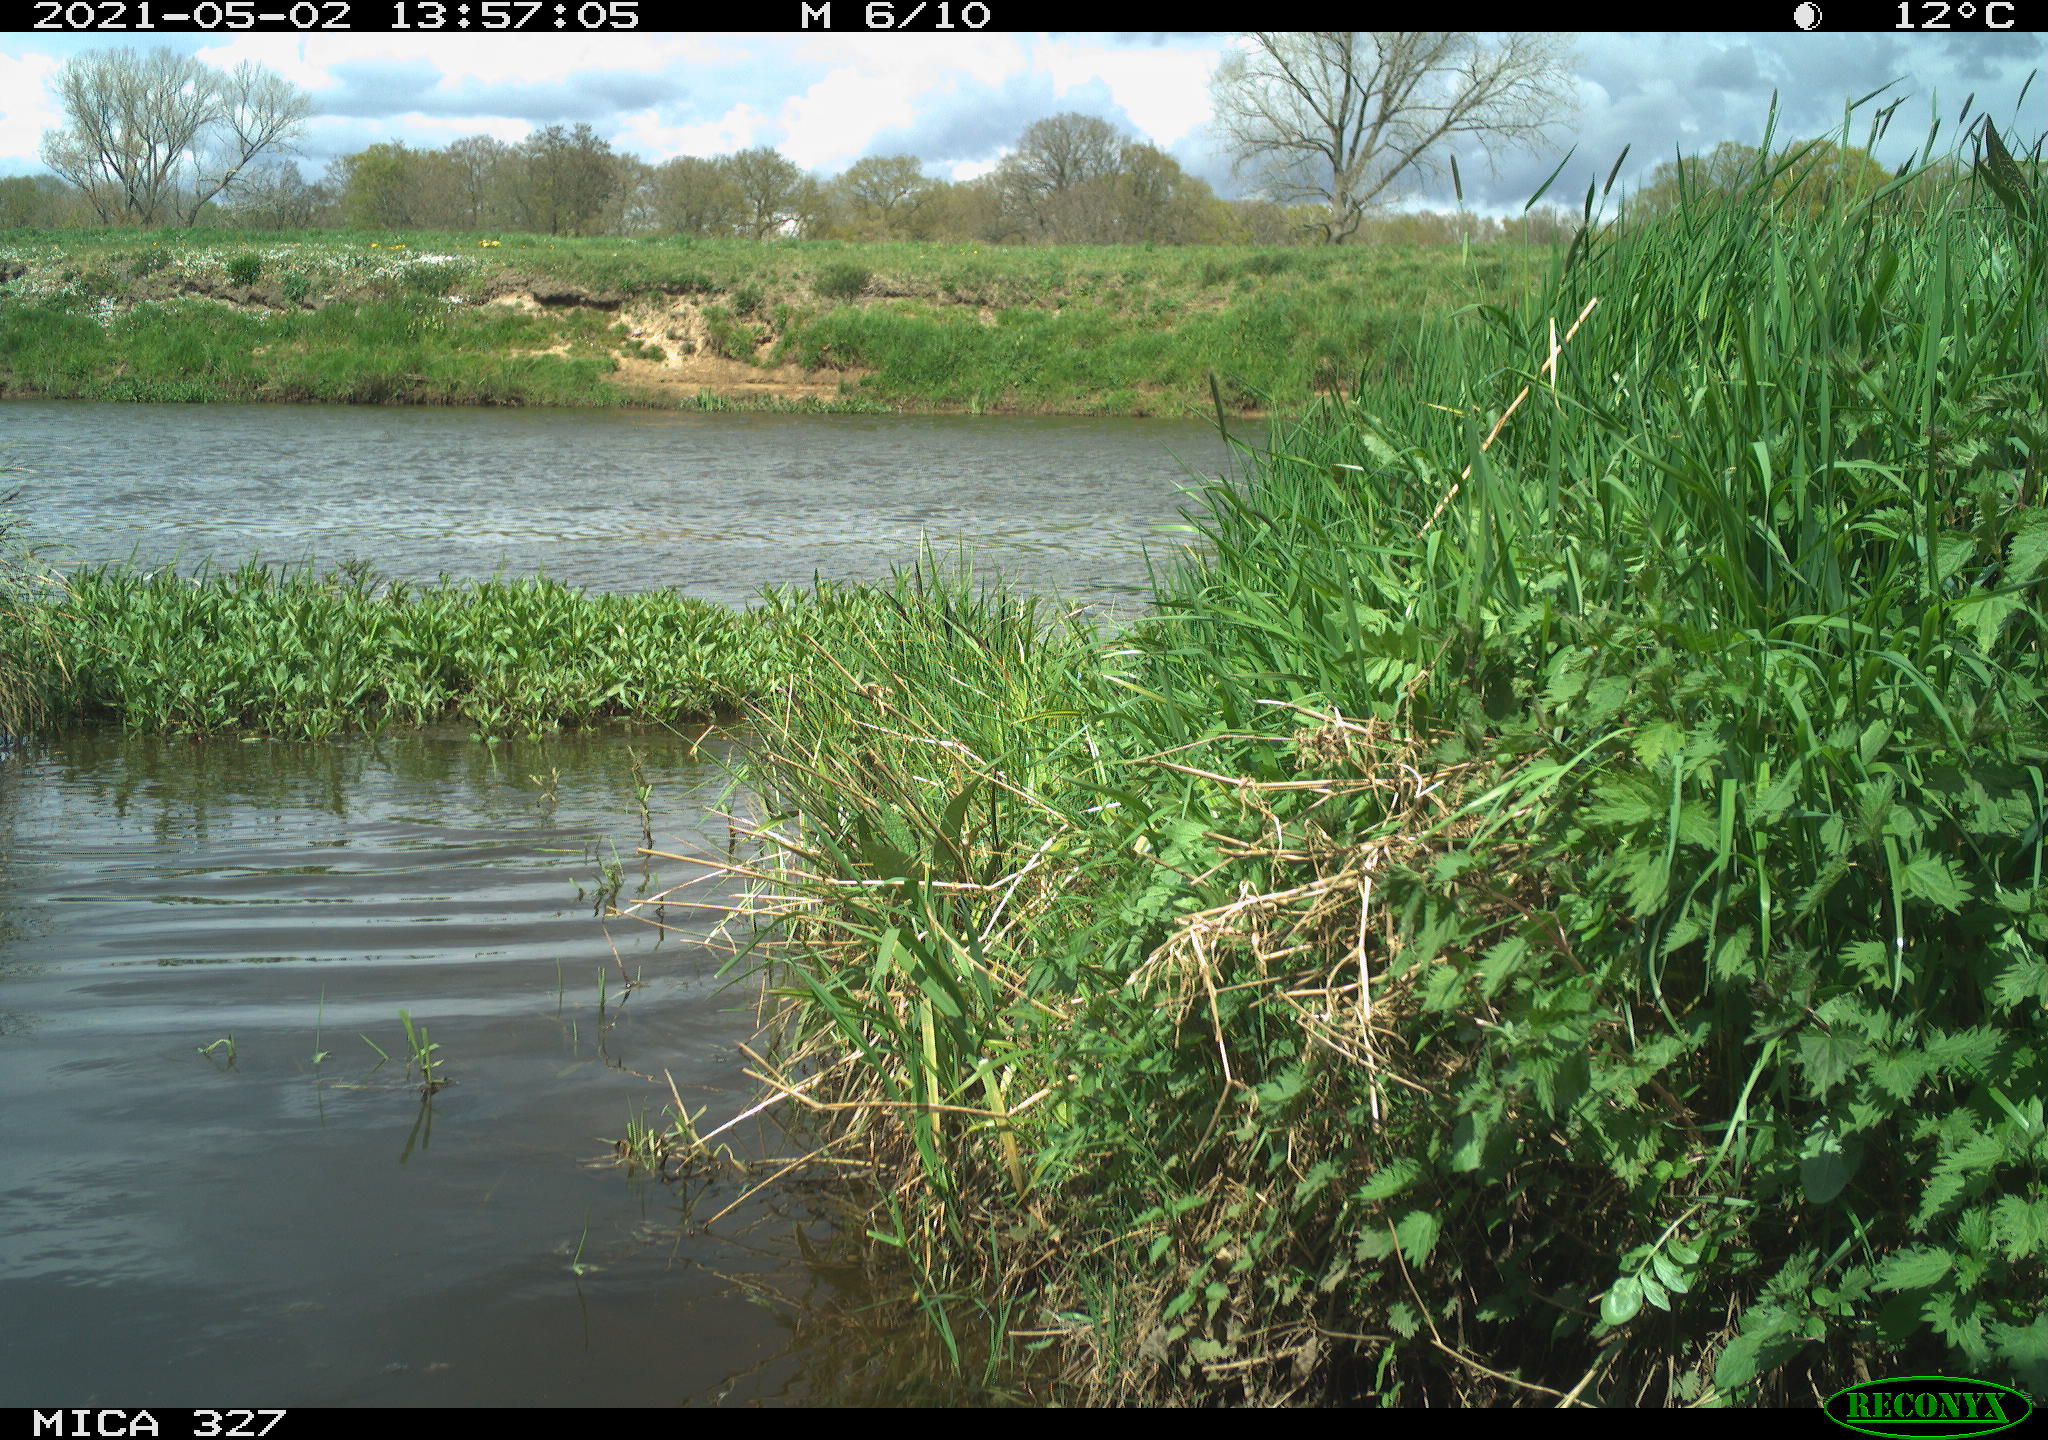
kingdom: Animalia
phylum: Chordata
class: Aves
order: Gruiformes
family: Rallidae
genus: Fulica
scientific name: Fulica atra
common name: Eurasian coot
